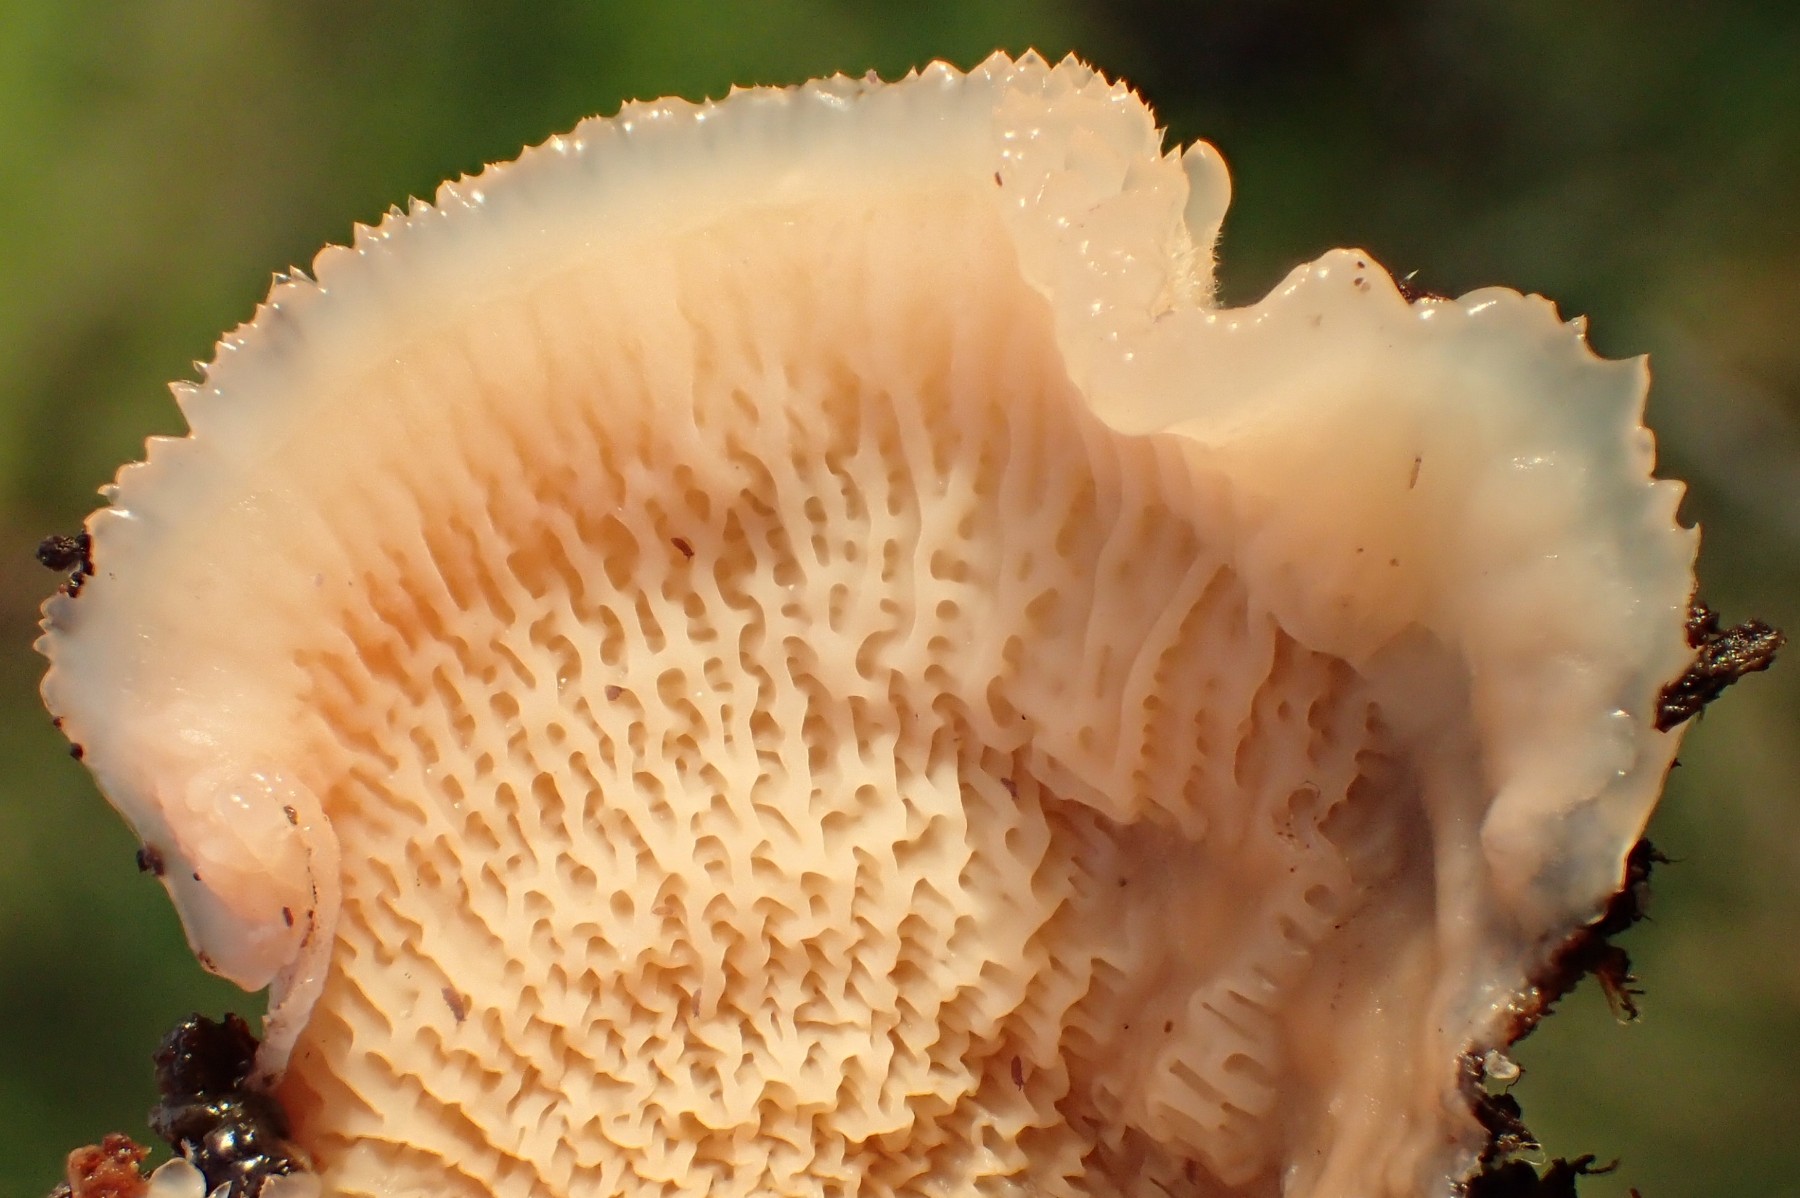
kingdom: Fungi
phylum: Basidiomycota
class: Agaricomycetes
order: Polyporales
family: Meruliaceae
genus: Phlebia
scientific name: Phlebia tremellosa
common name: bævrende åresvamp
